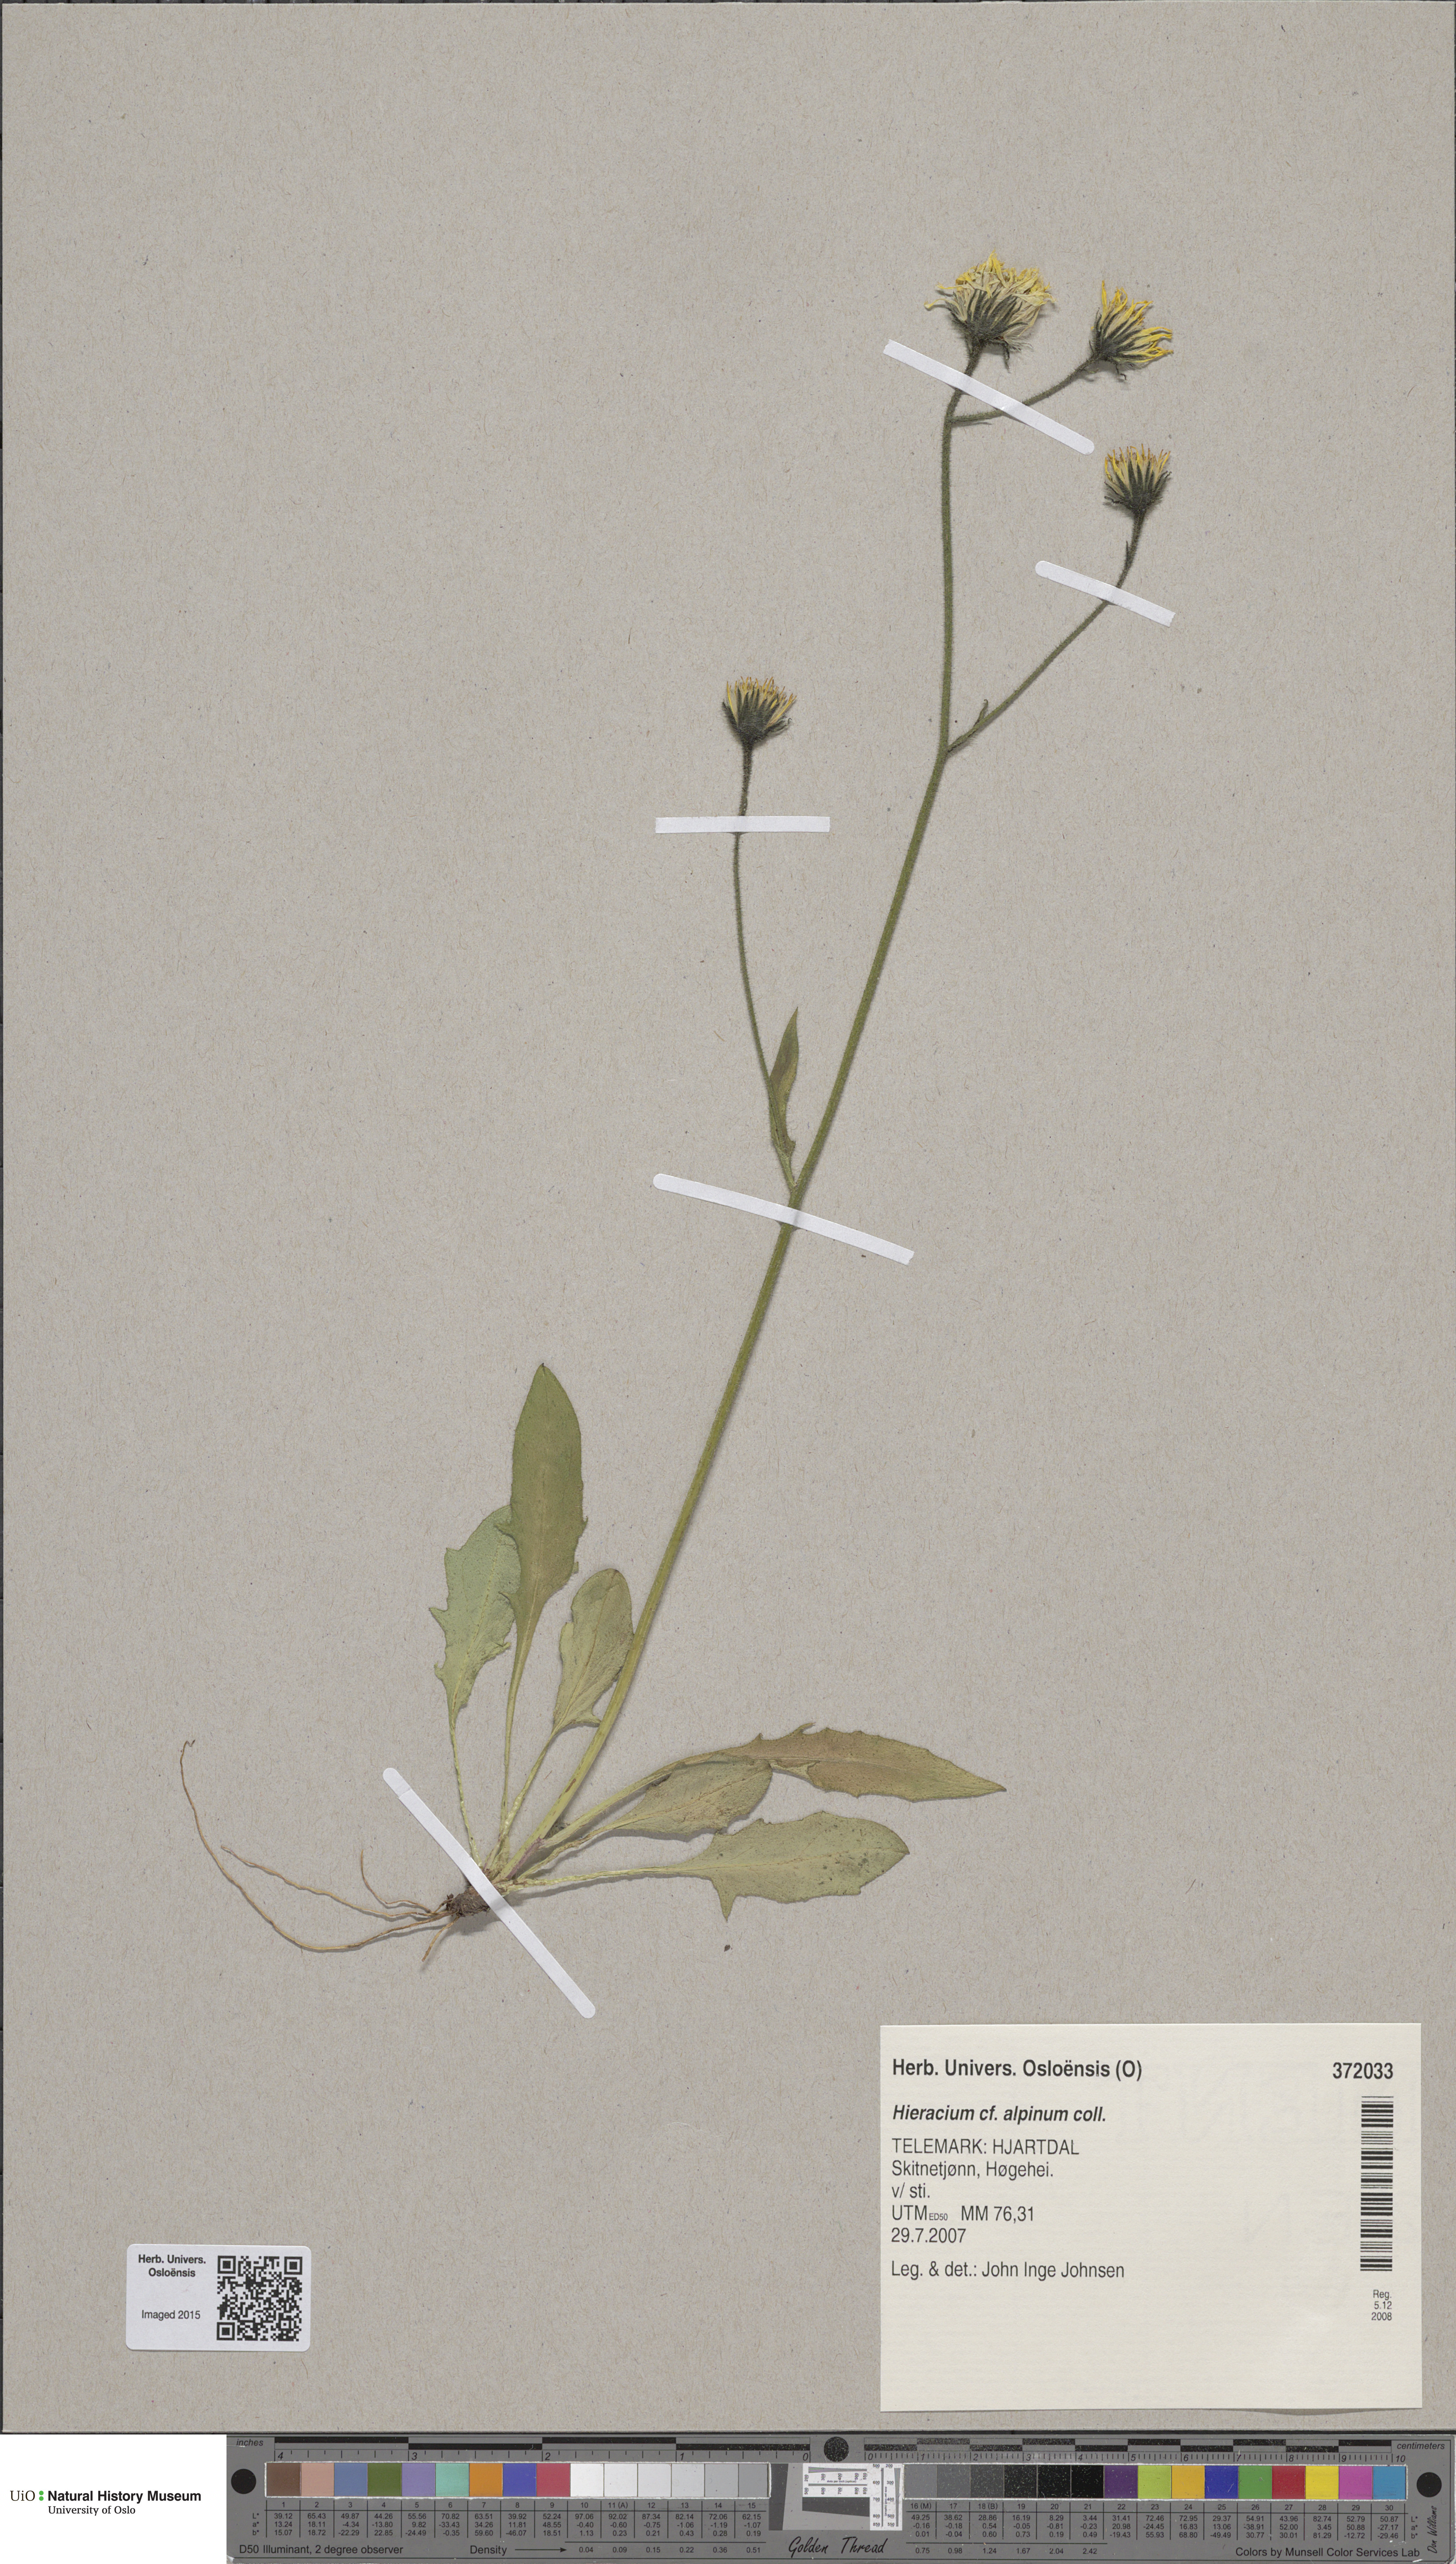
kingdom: Plantae
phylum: Tracheophyta
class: Magnoliopsida
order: Asterales
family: Asteraceae
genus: Hieracium
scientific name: Hieracium alpinum
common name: Alpine hawkweed
